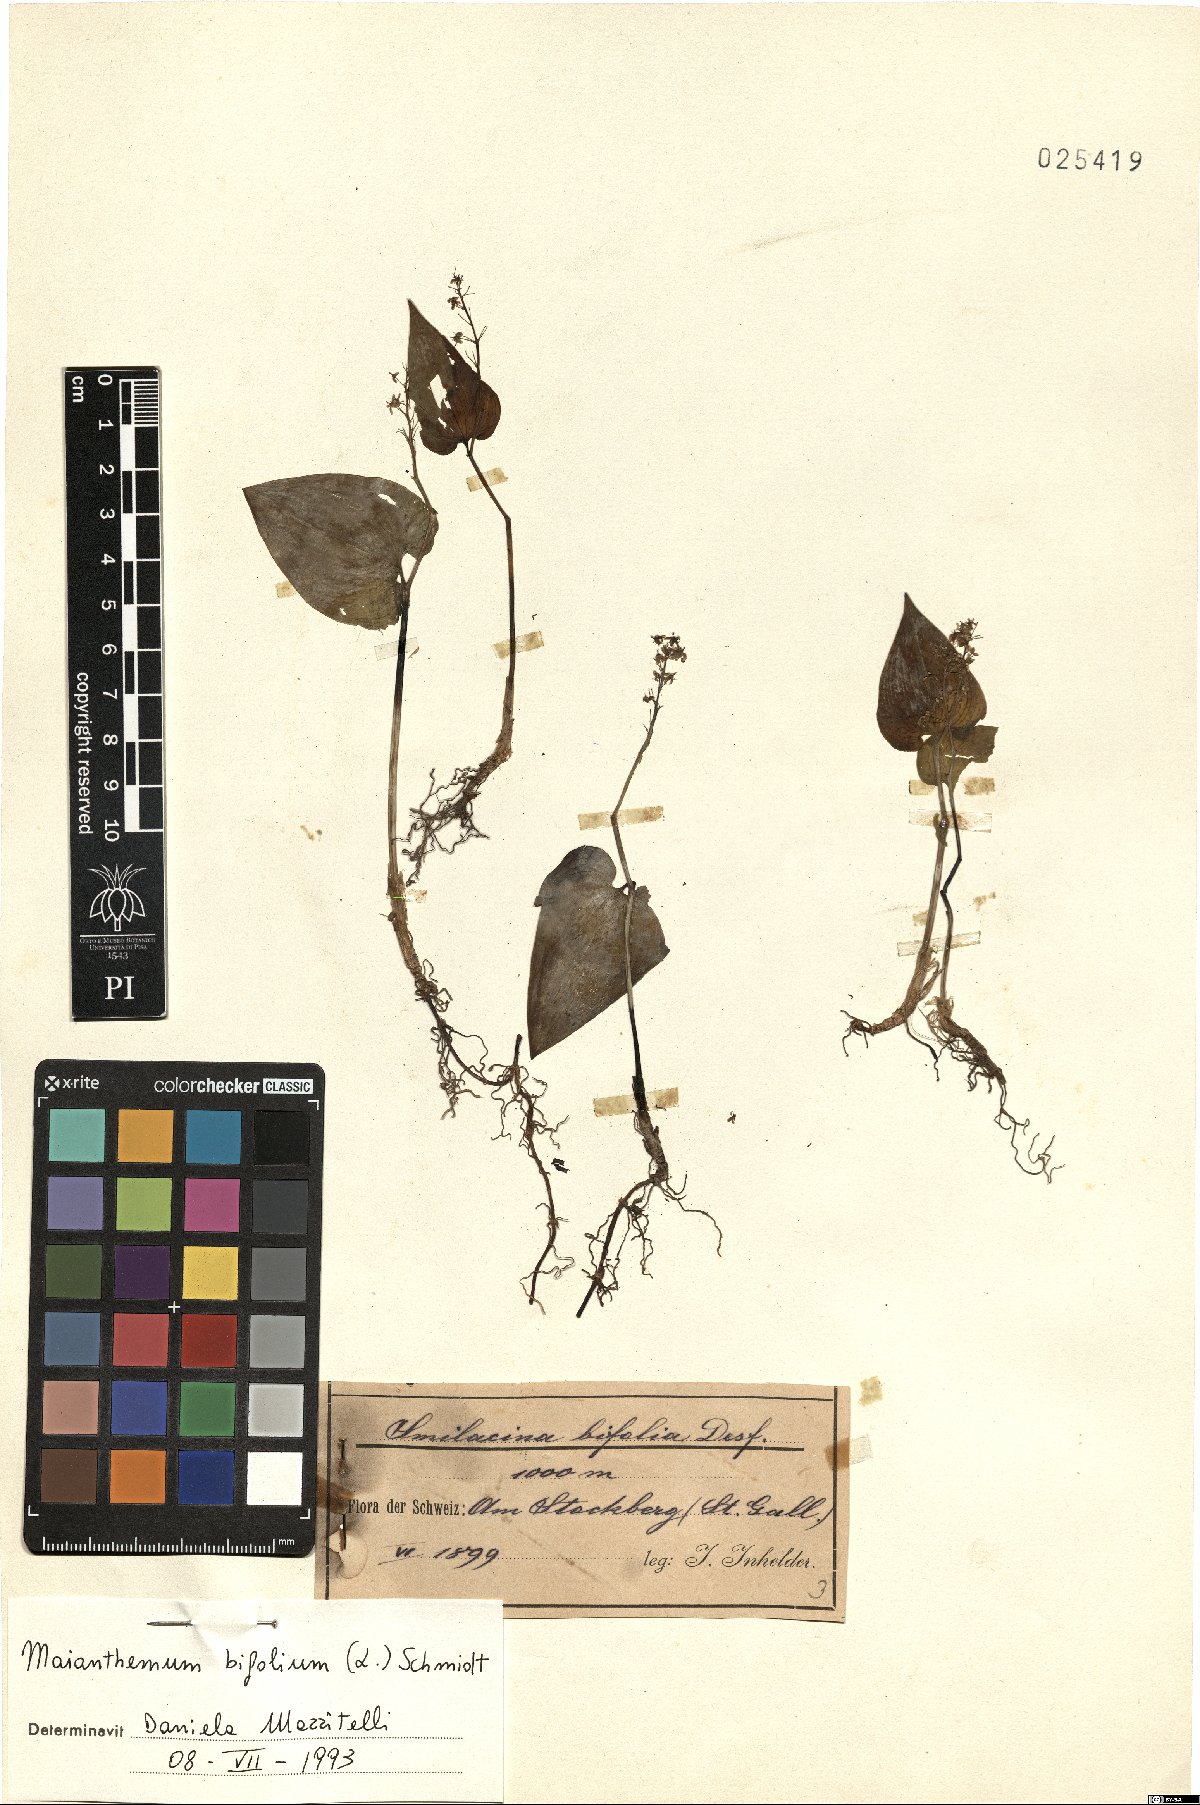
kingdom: Plantae
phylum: Tracheophyta
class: Liliopsida
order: Asparagales
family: Asparagaceae
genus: Maianthemum
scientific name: Maianthemum bifolium
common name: May lily
